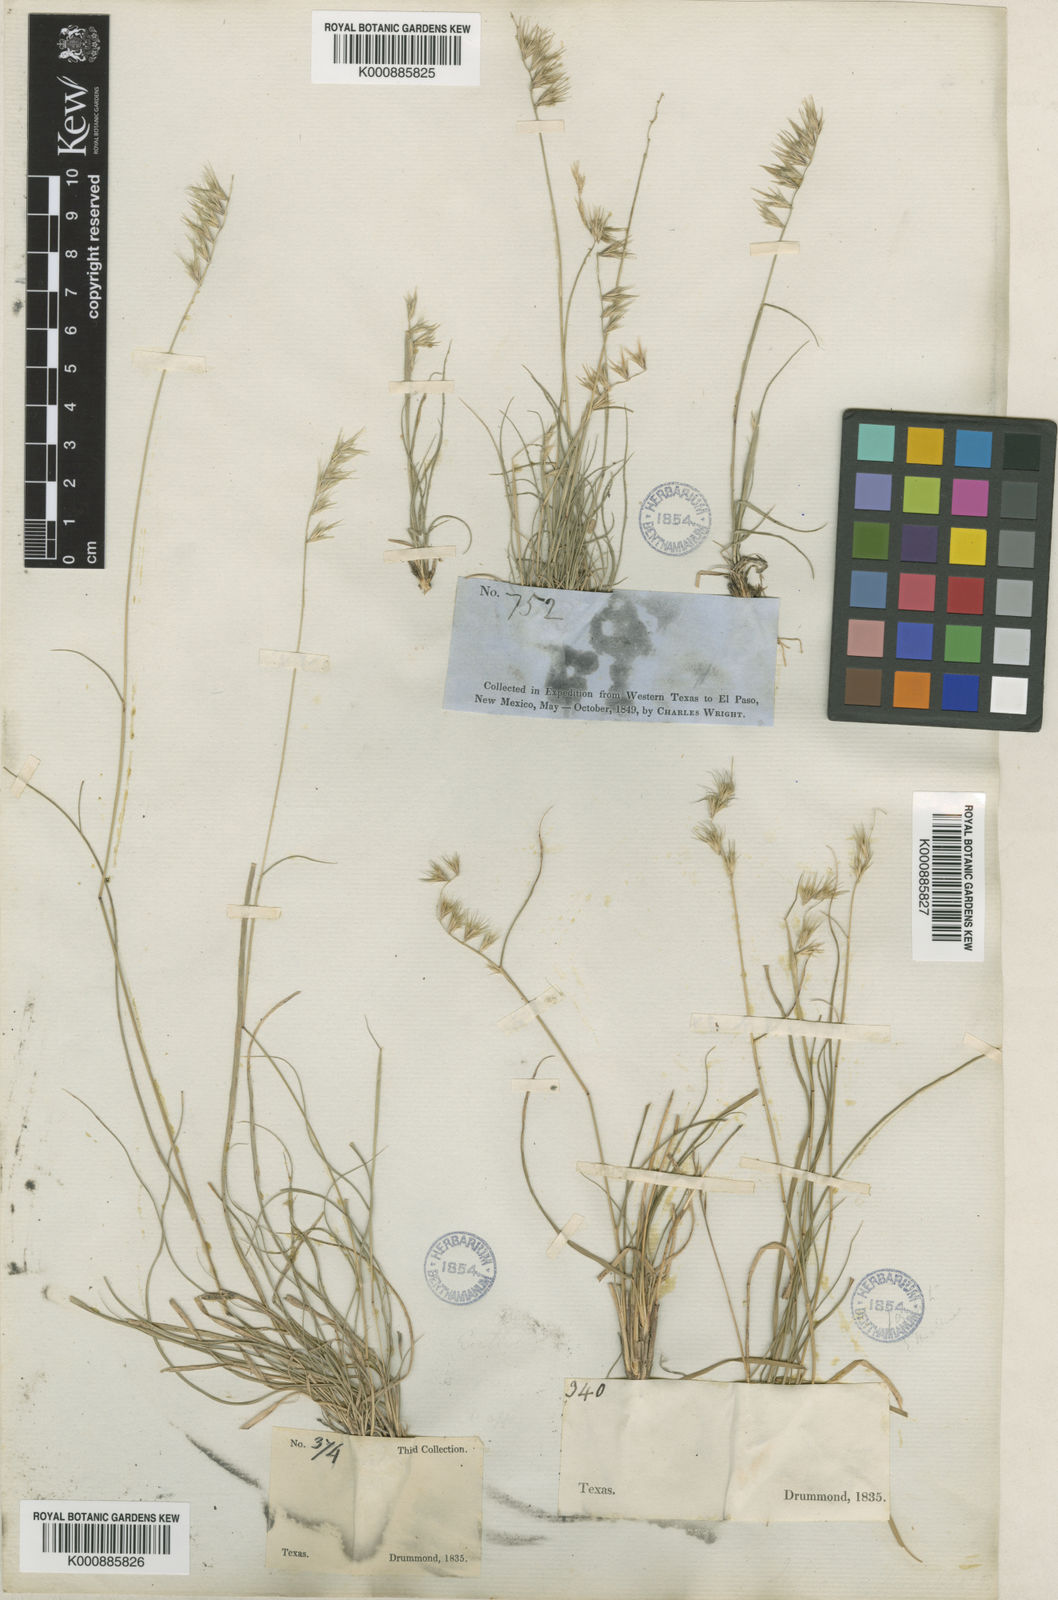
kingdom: Plantae
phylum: Tracheophyta
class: Liliopsida
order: Poales
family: Poaceae
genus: Bouteloua
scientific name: Bouteloua rigidiseta
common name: Texas grama
